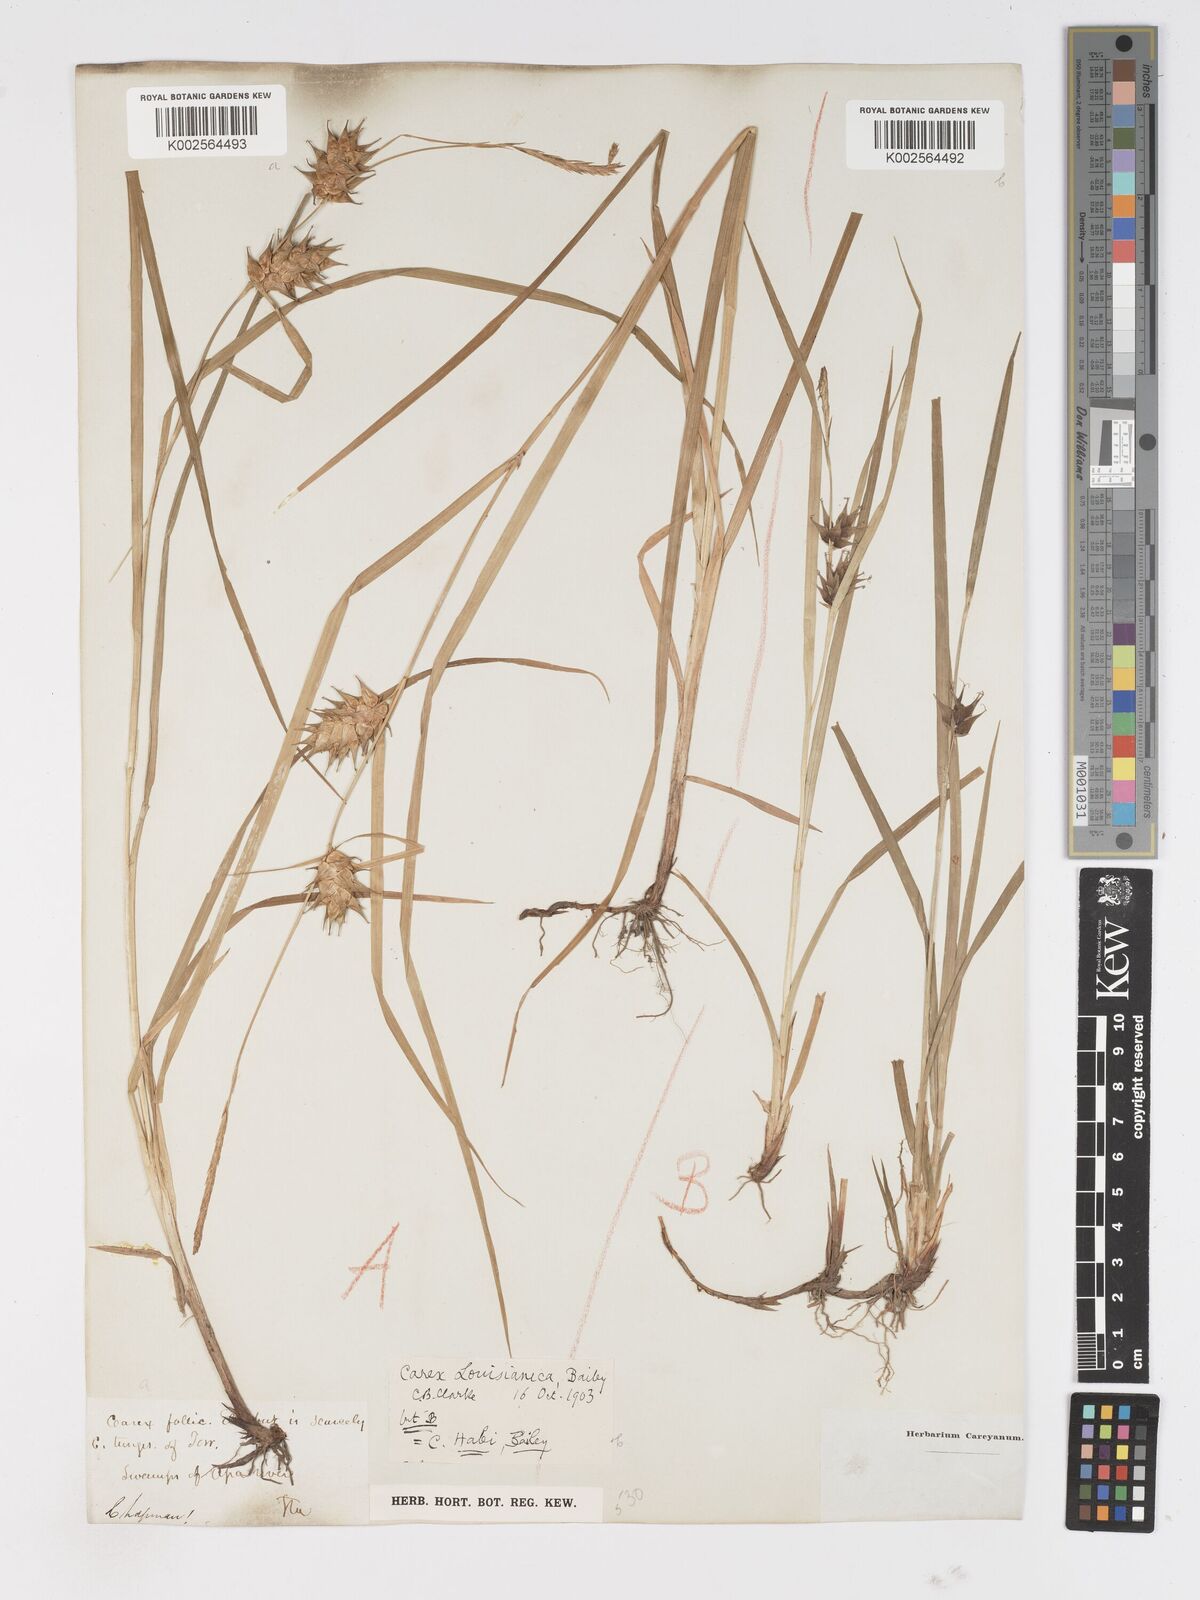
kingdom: Plantae
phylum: Tracheophyta
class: Liliopsida
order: Poales
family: Cyperaceae
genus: Carex
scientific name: Carex louisianica
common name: Louisiana sedge
